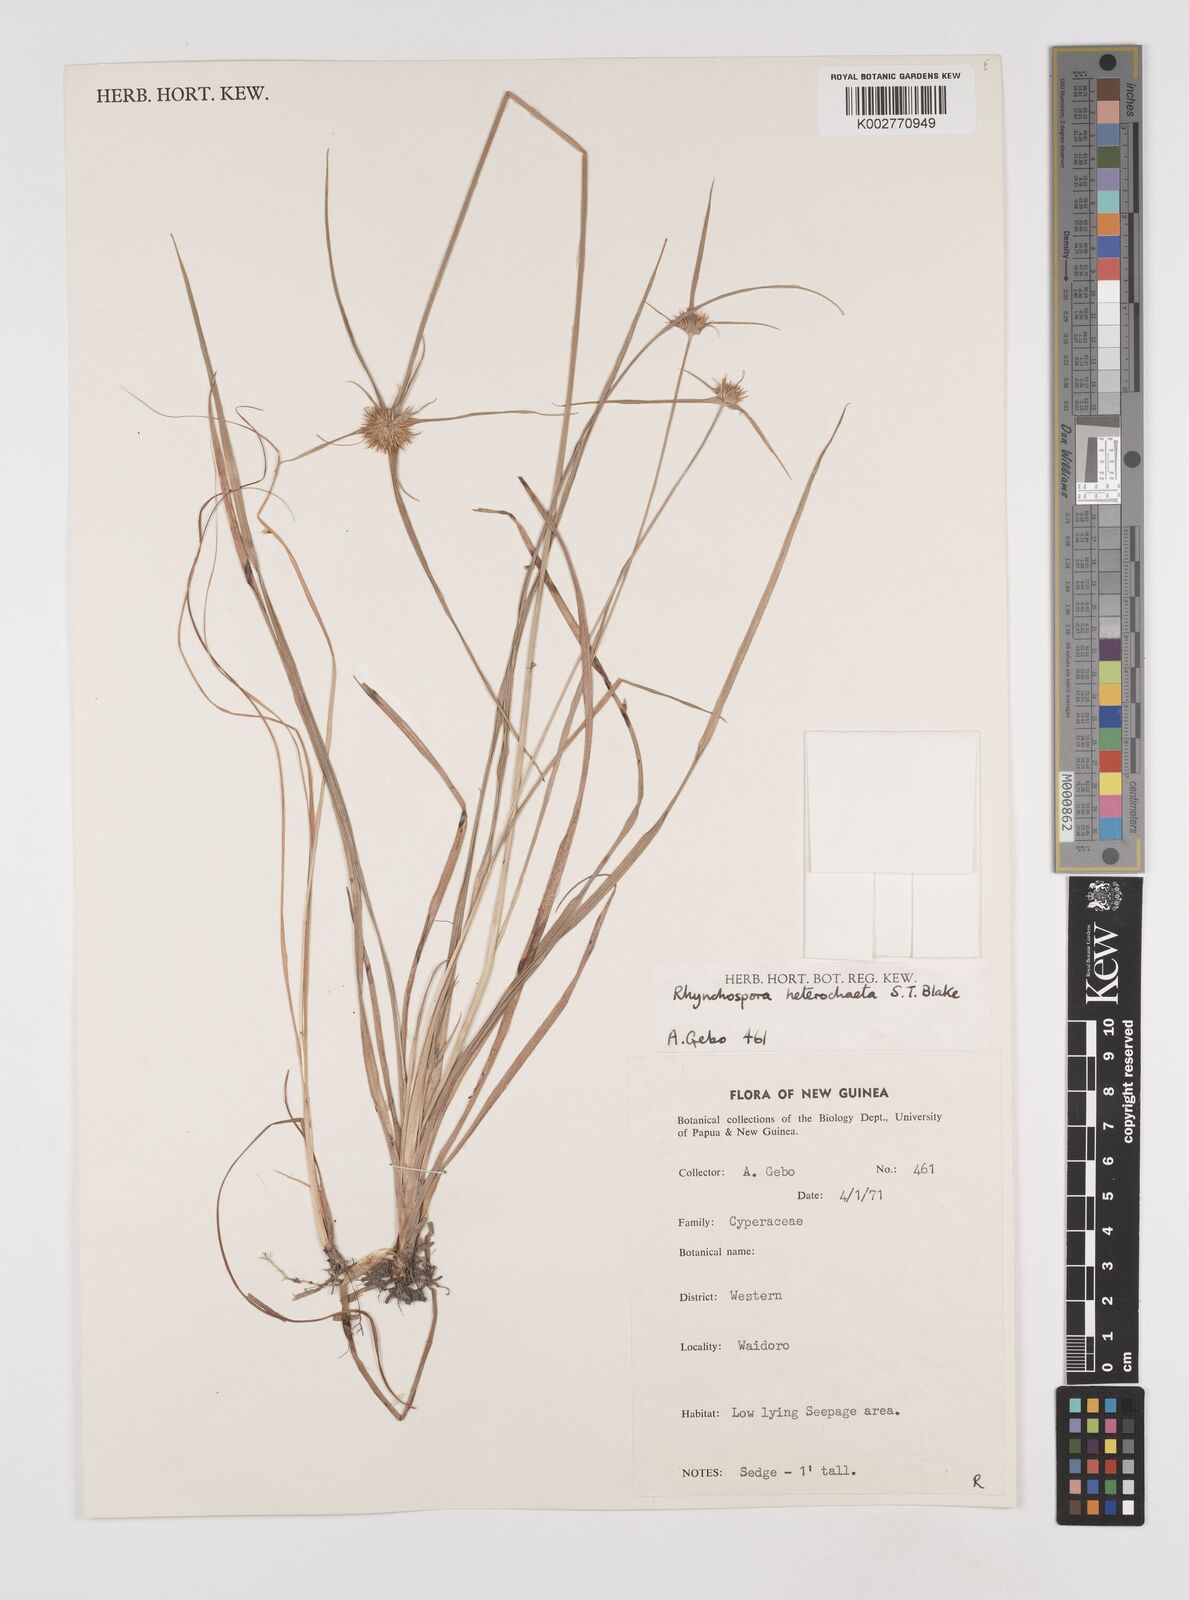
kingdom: Plantae
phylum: Tracheophyta
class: Liliopsida
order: Poales
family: Cyperaceae
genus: Rhynchospora
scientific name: Rhynchospora heterochaeta
